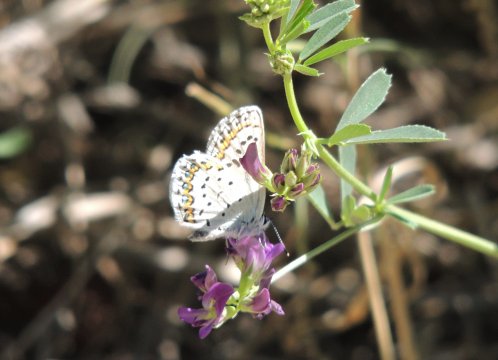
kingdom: Animalia
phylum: Arthropoda
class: Insecta
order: Lepidoptera
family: Lycaenidae
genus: Lycaeides
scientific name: Lycaeides idas
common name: Northern Blue
